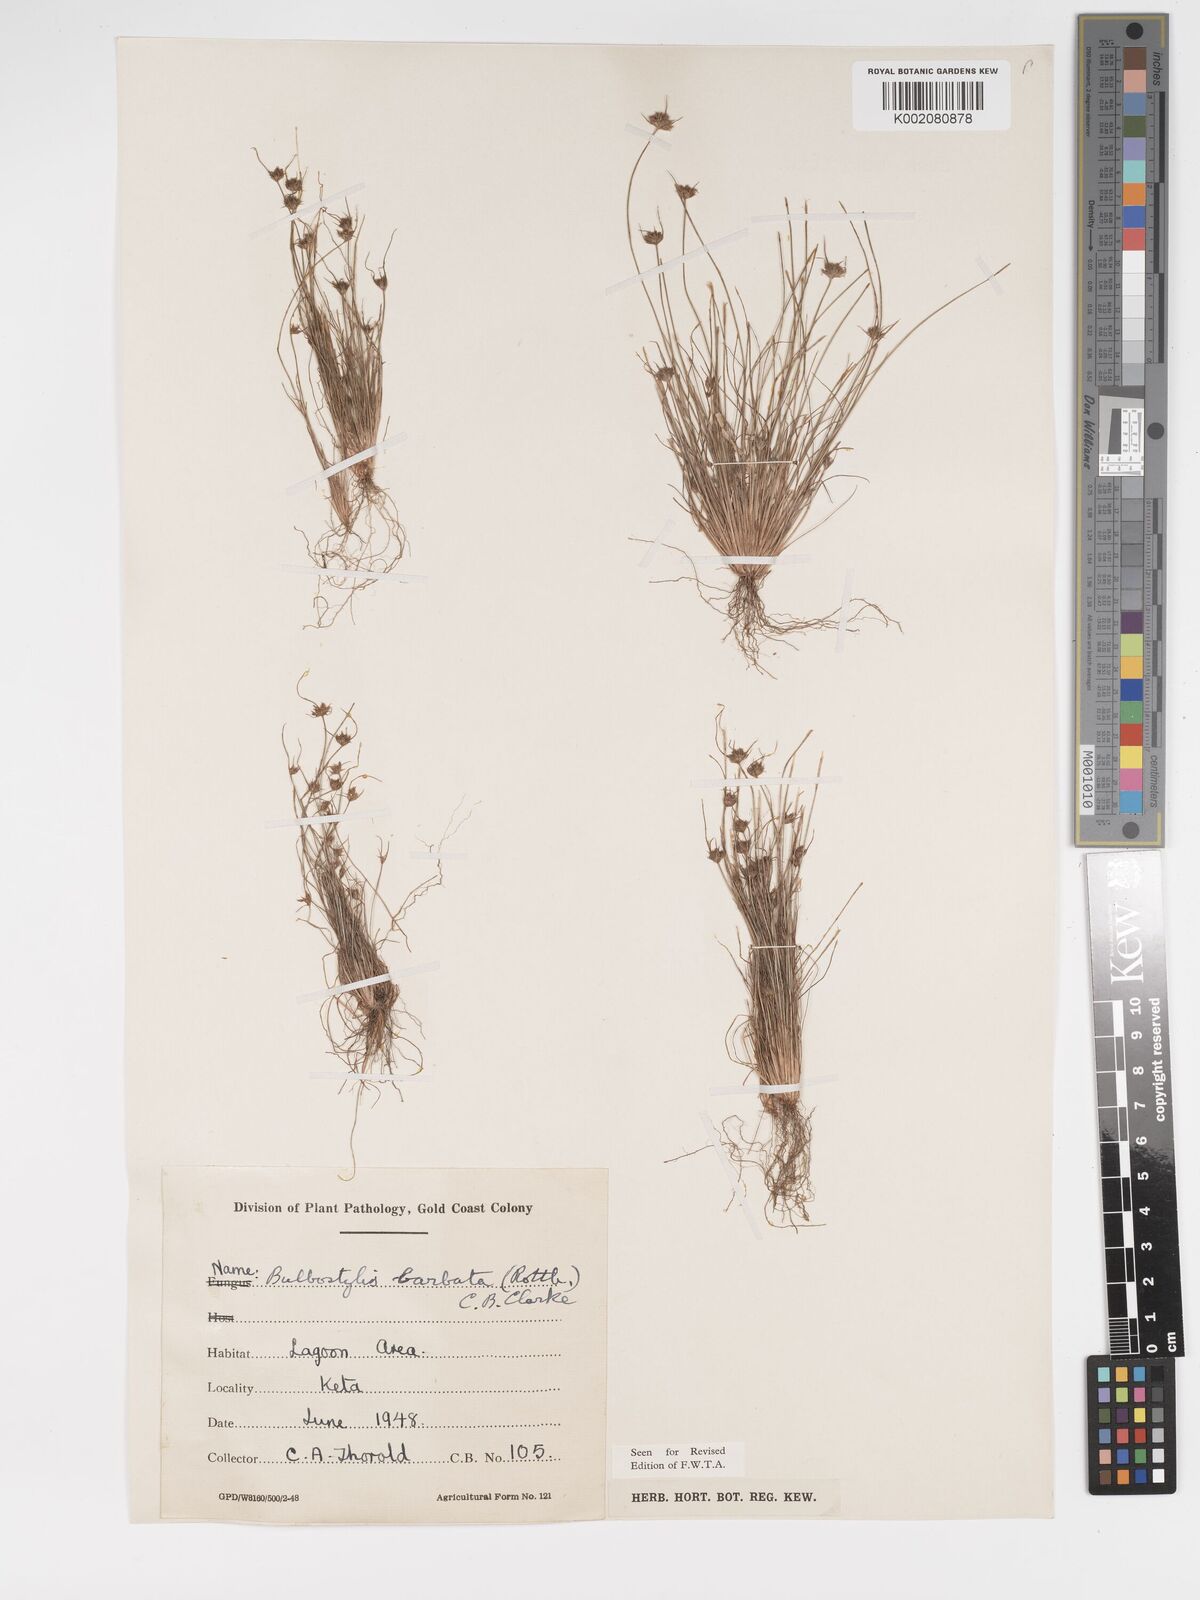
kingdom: Plantae
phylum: Tracheophyta
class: Liliopsida
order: Poales
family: Cyperaceae
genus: Bulbostylis
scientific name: Bulbostylis barbata
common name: Watergrass
